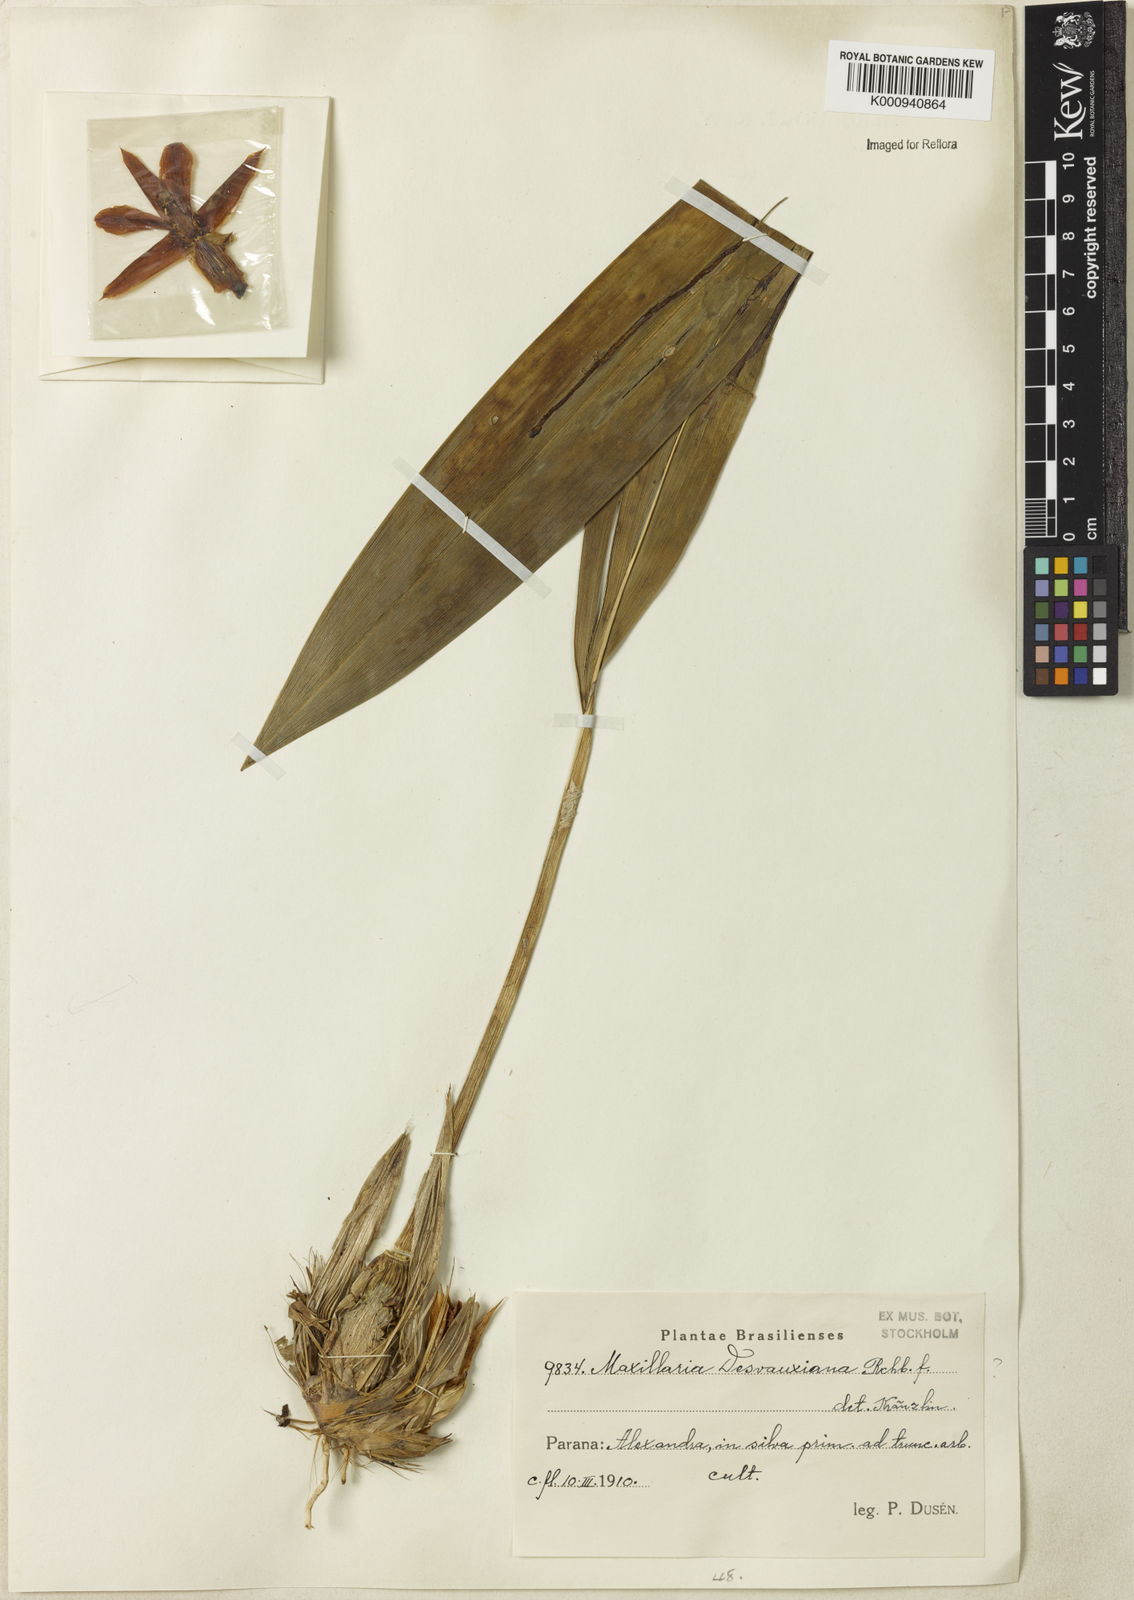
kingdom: Plantae
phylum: Tracheophyta
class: Liliopsida
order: Asparagales
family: Orchidaceae
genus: Maxillaria
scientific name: Maxillaria desvauxiana
